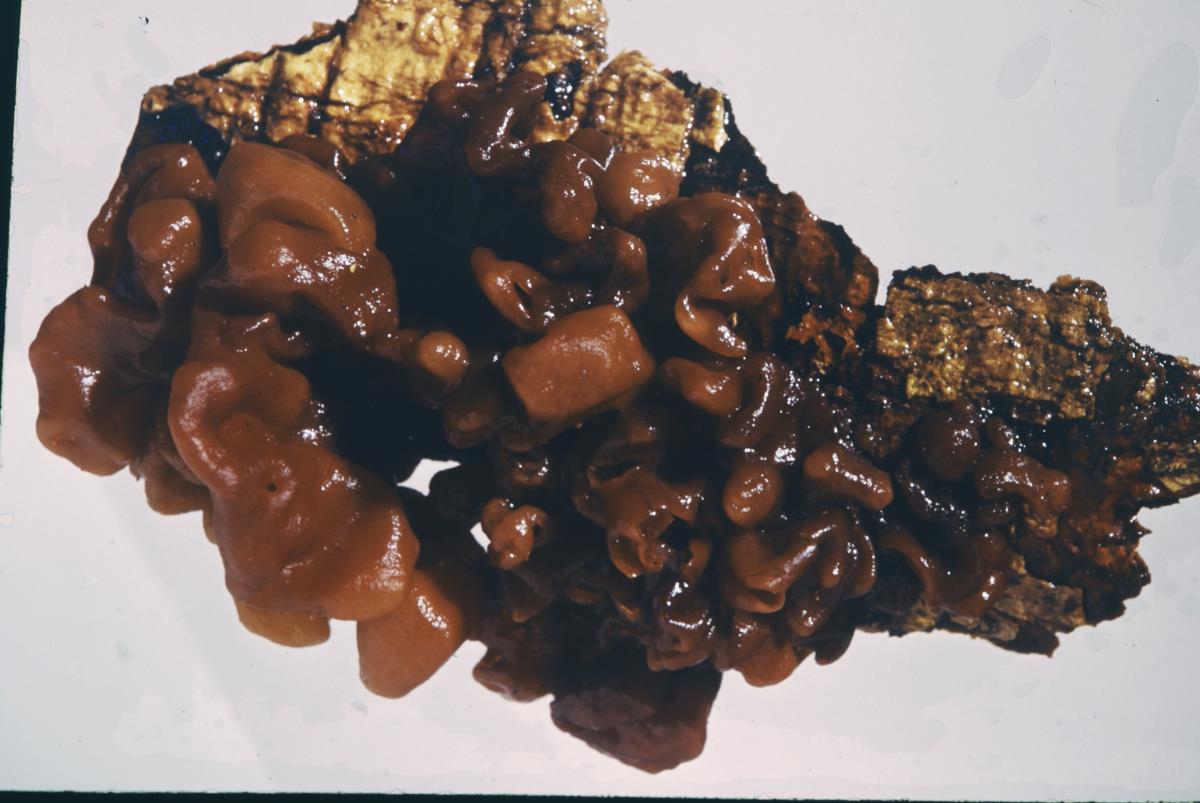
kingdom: Fungi
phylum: Basidiomycota
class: Tremellomycetes
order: Tremellales
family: Tremellaceae
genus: Tremella
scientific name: Tremella vesiculosa
